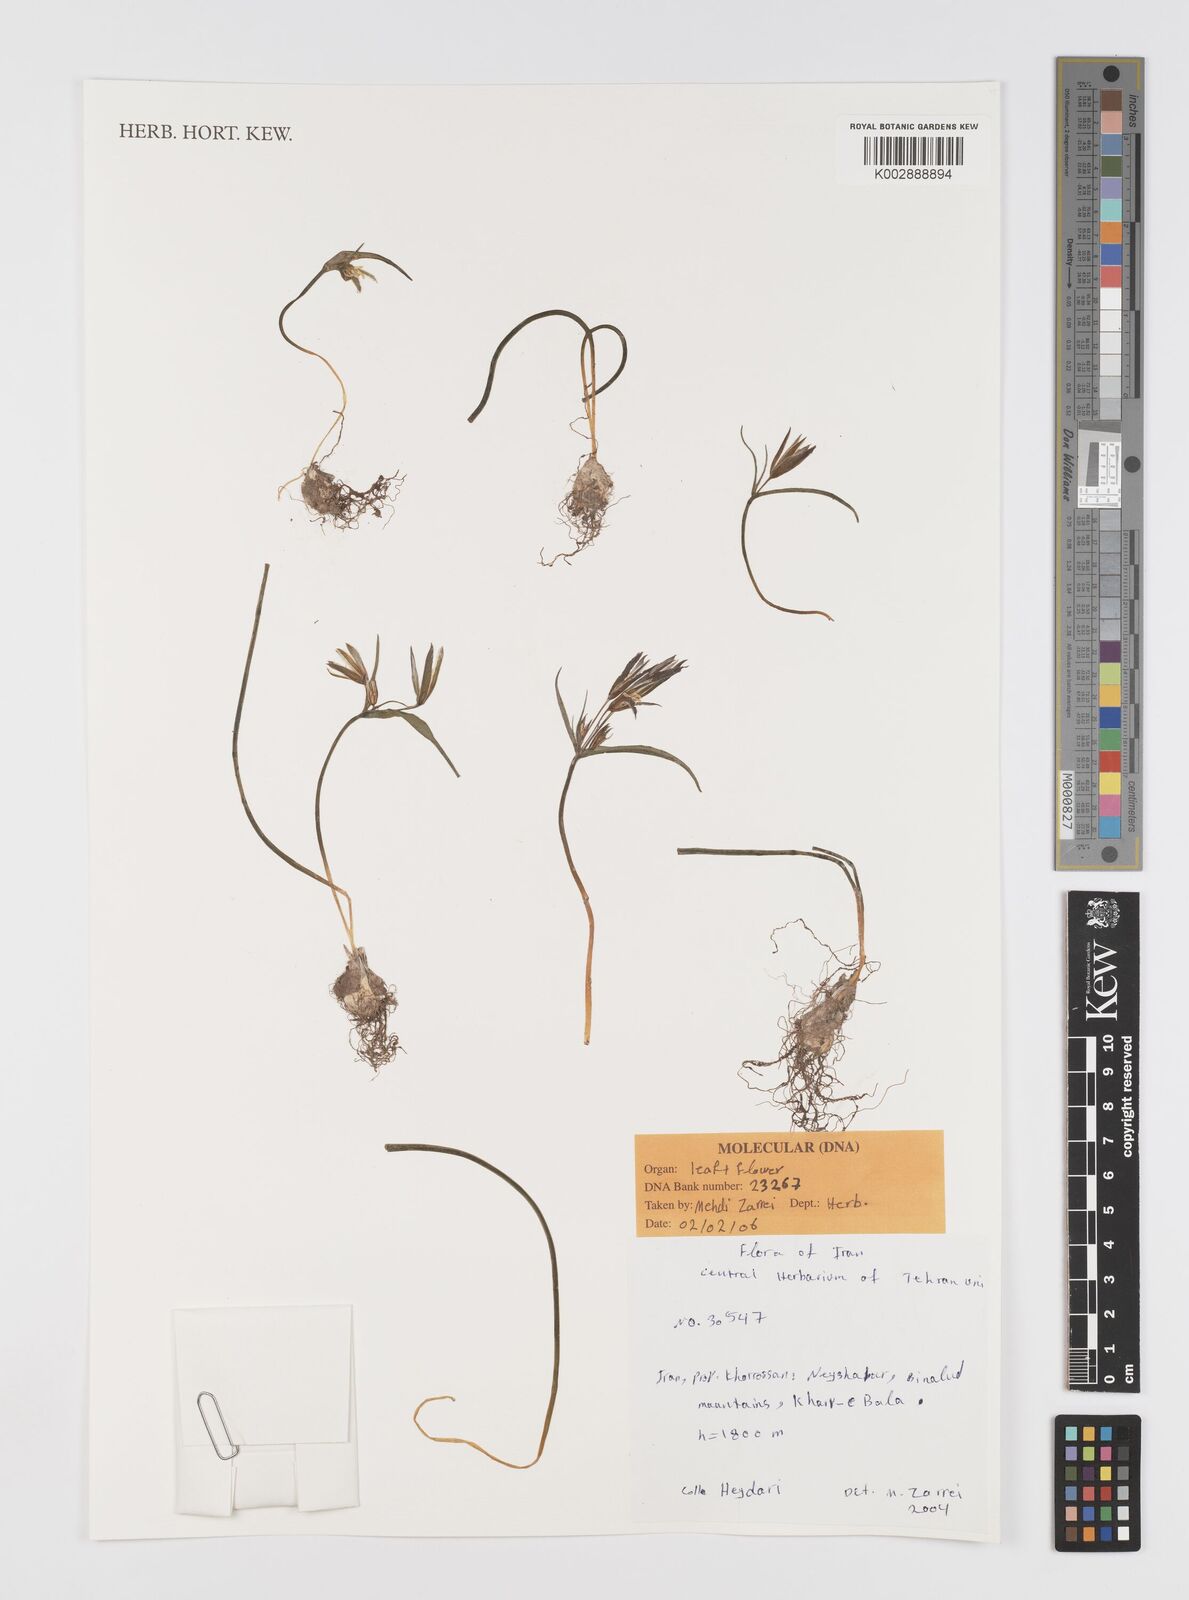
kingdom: Plantae
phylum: Tracheophyta
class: Liliopsida
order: Liliales
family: Liliaceae
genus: Gagea
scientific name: Gagea
